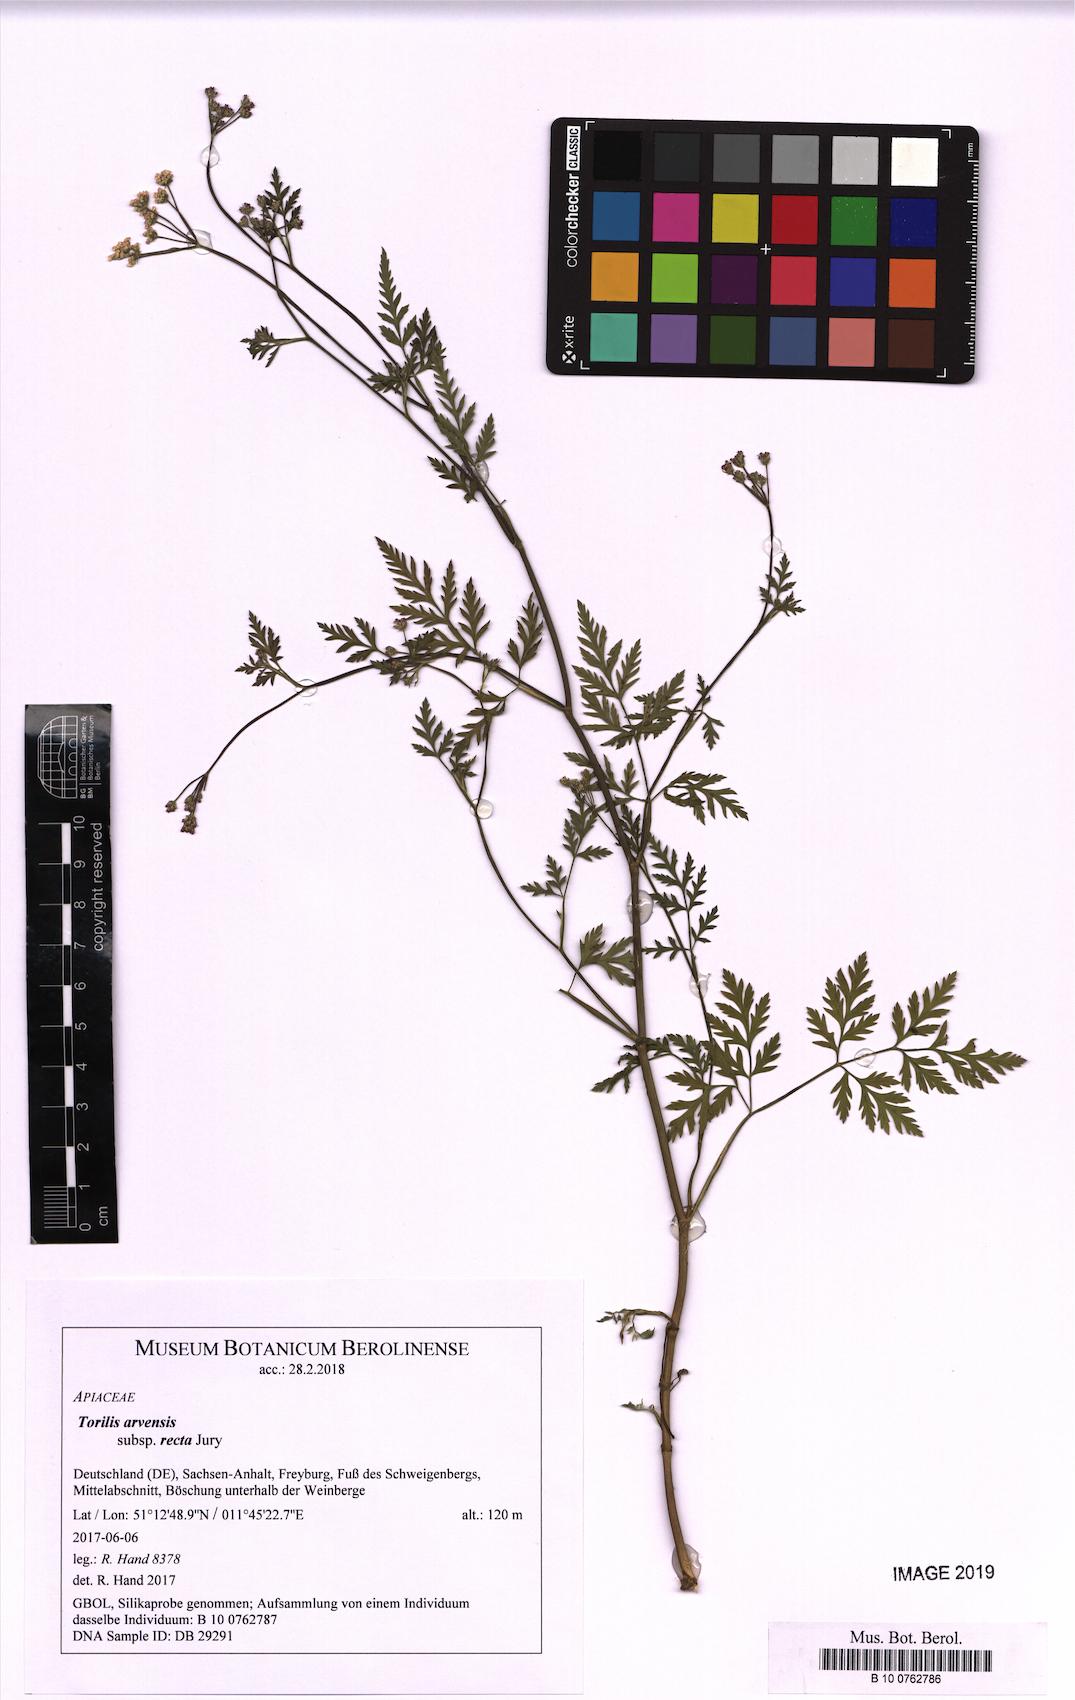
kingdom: Plantae
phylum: Tracheophyta
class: Magnoliopsida
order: Apiales
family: Apiaceae
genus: Torilis
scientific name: Torilis arvensis
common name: Spreading hedge-parsley
